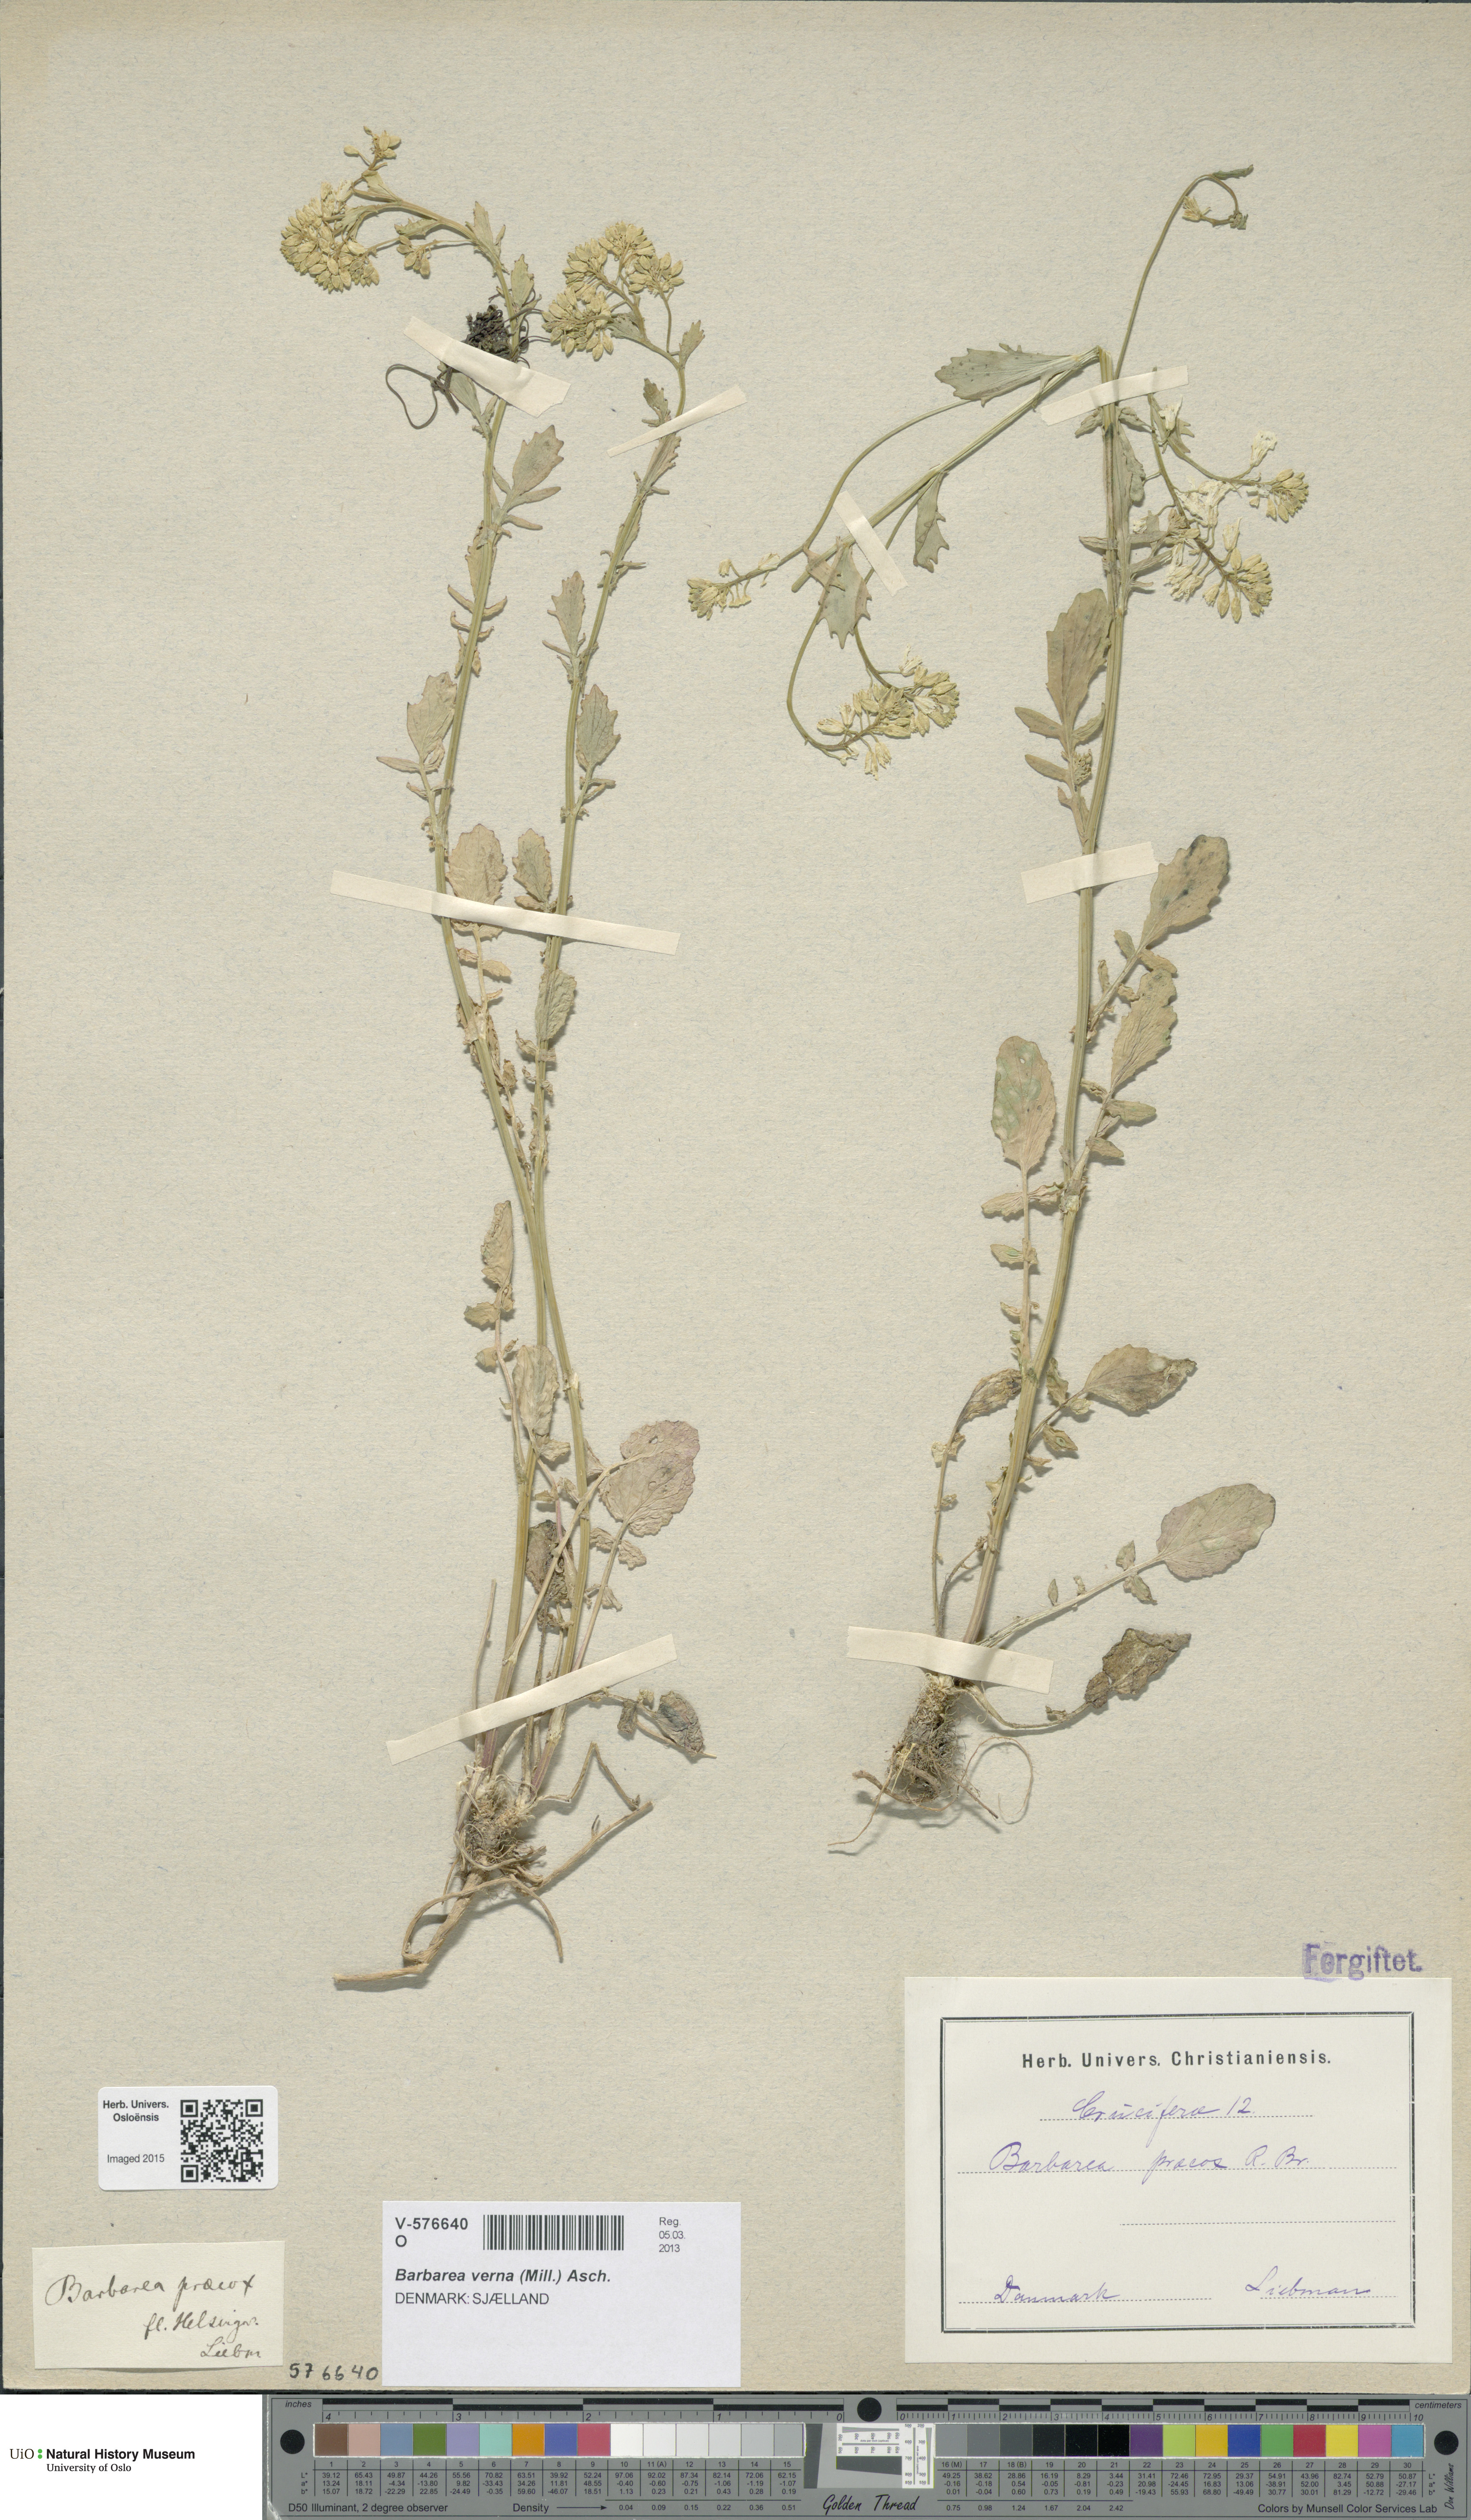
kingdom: Plantae
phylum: Tracheophyta
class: Magnoliopsida
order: Brassicales
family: Brassicaceae
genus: Barbarea
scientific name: Barbarea verna
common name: American cress
